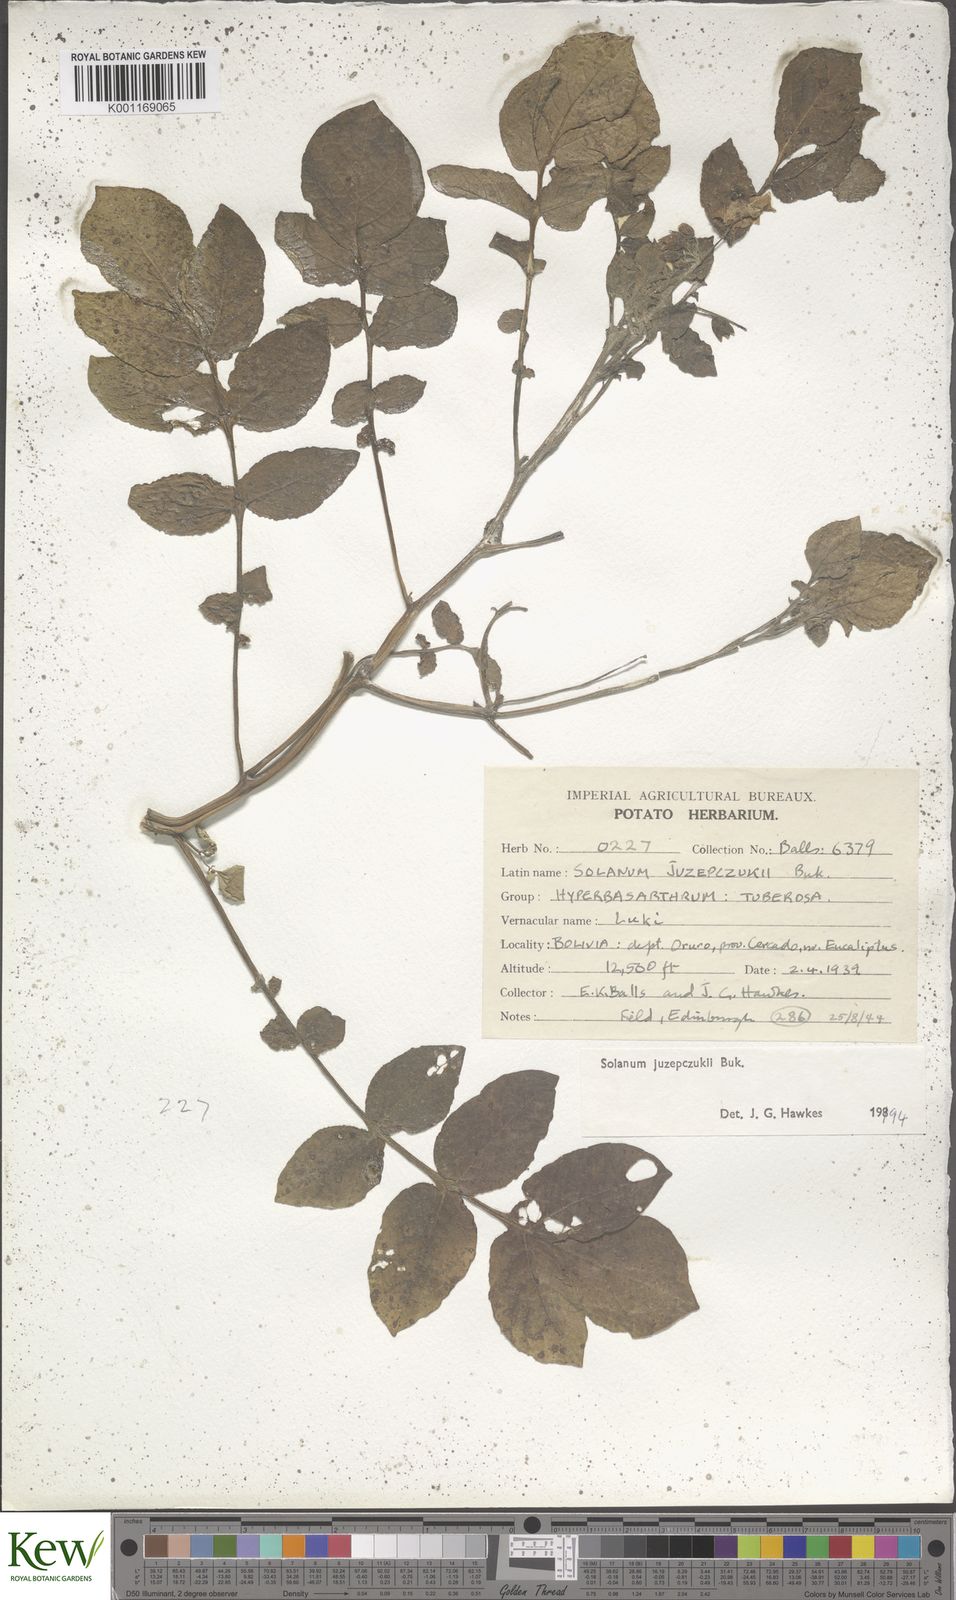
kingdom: Plantae
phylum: Tracheophyta
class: Magnoliopsida
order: Solanales
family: Solanaceae
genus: Solanum
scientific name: Solanum juzepczukii
